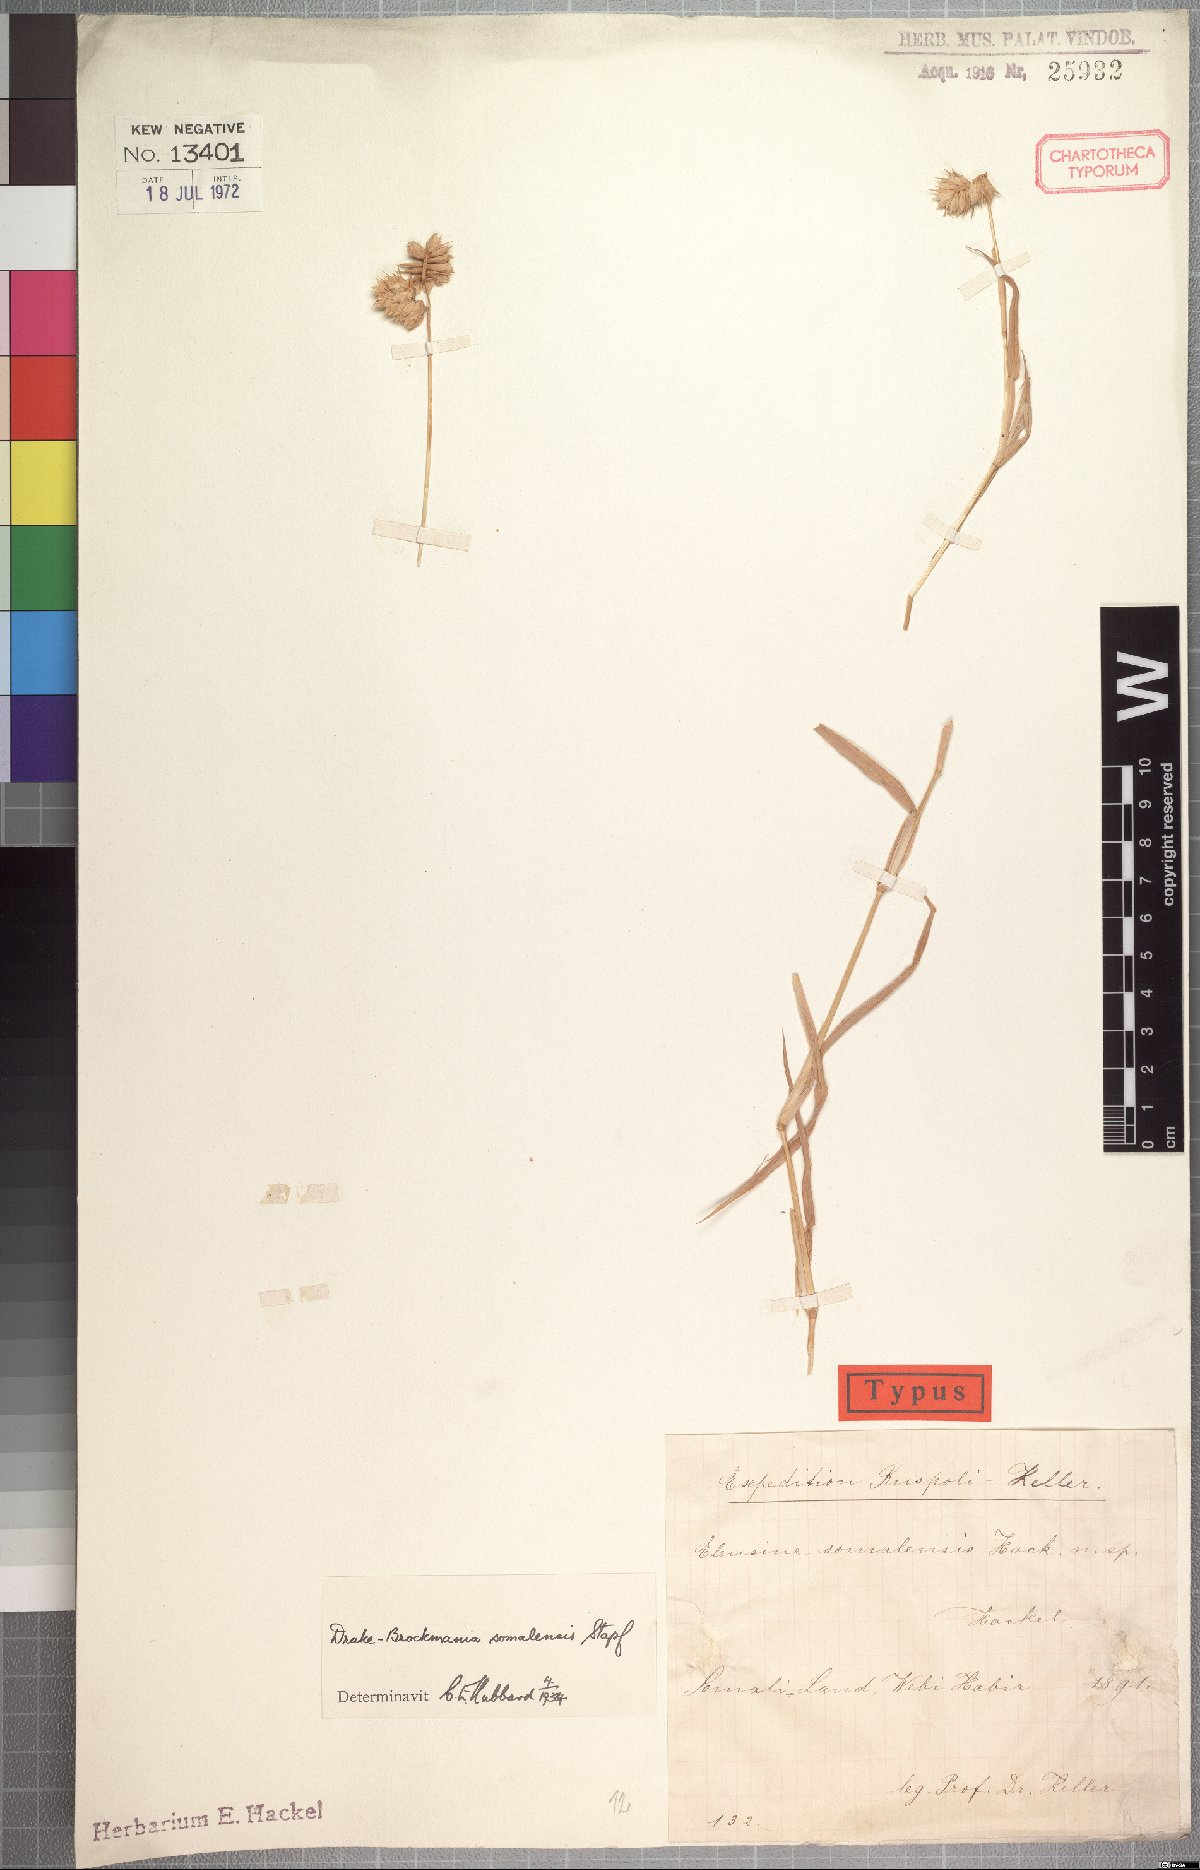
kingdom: Plantae
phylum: Tracheophyta
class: Liliopsida
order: Poales
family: Poaceae
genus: Dinebra
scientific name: Dinebra somalensis
